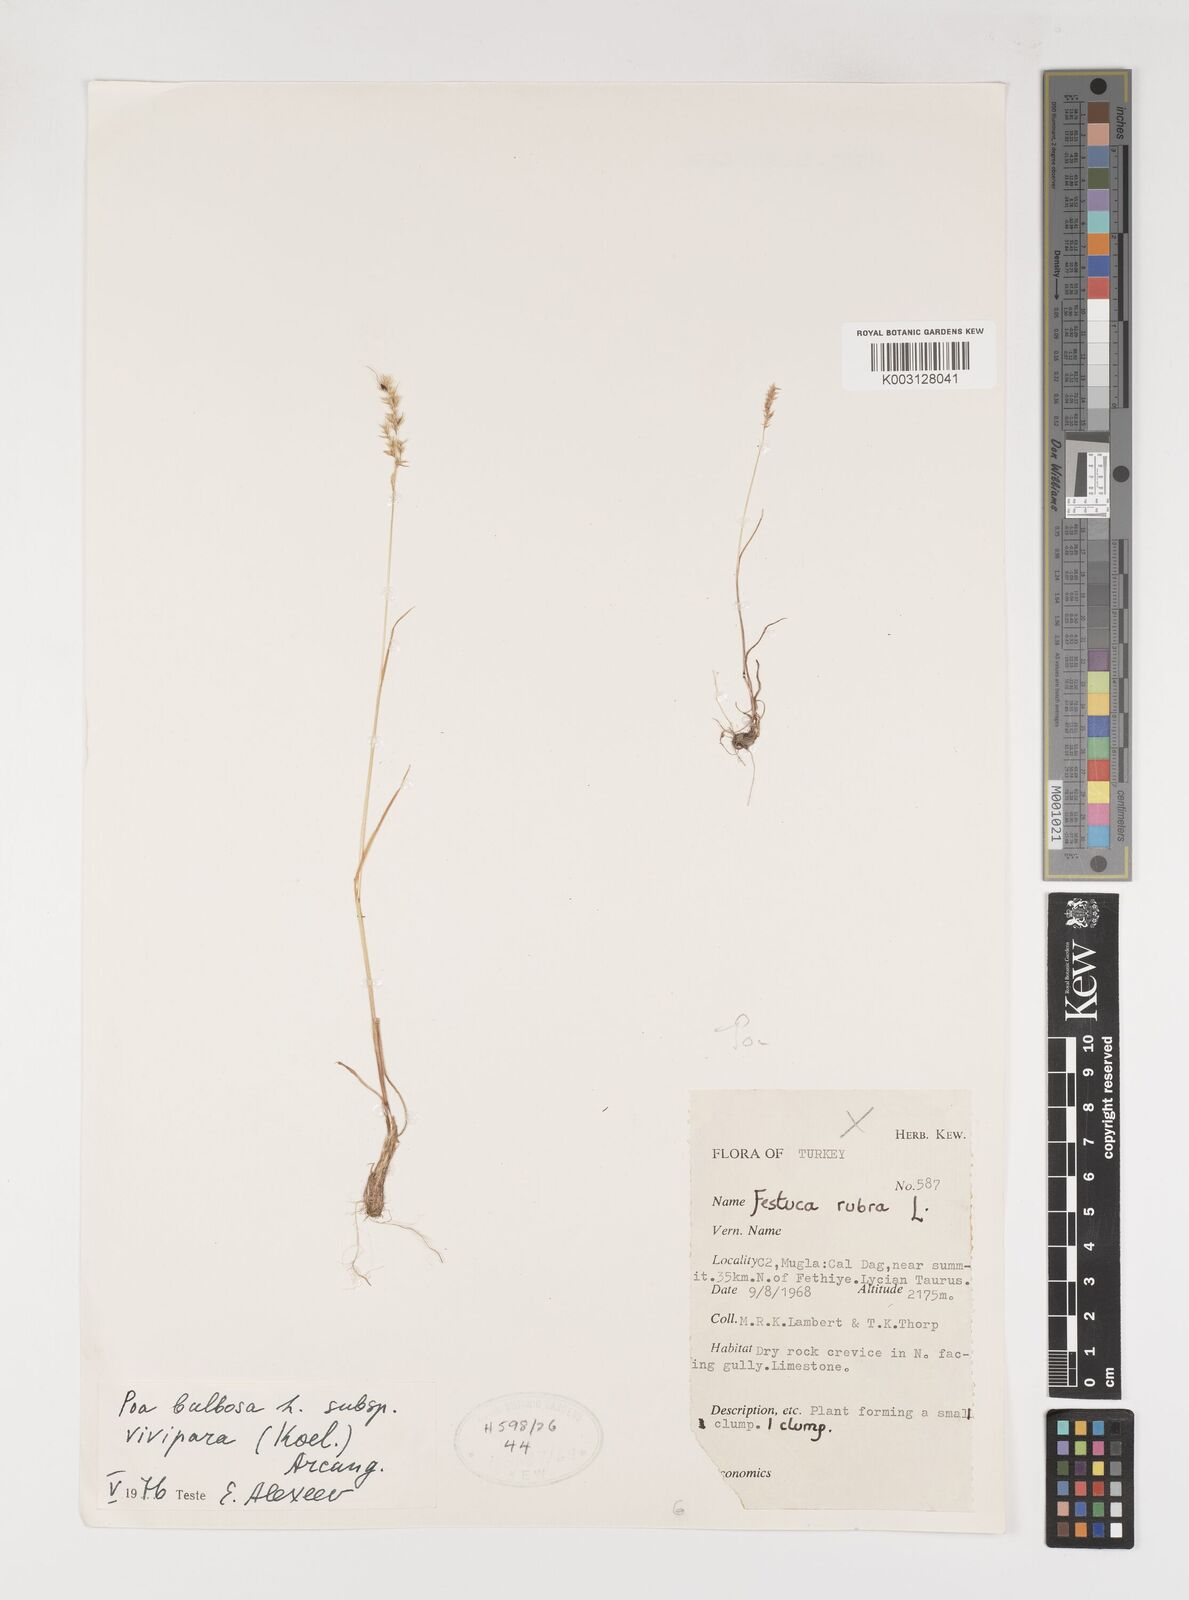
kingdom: Plantae
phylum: Tracheophyta
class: Liliopsida
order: Poales
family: Poaceae
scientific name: Poaceae
